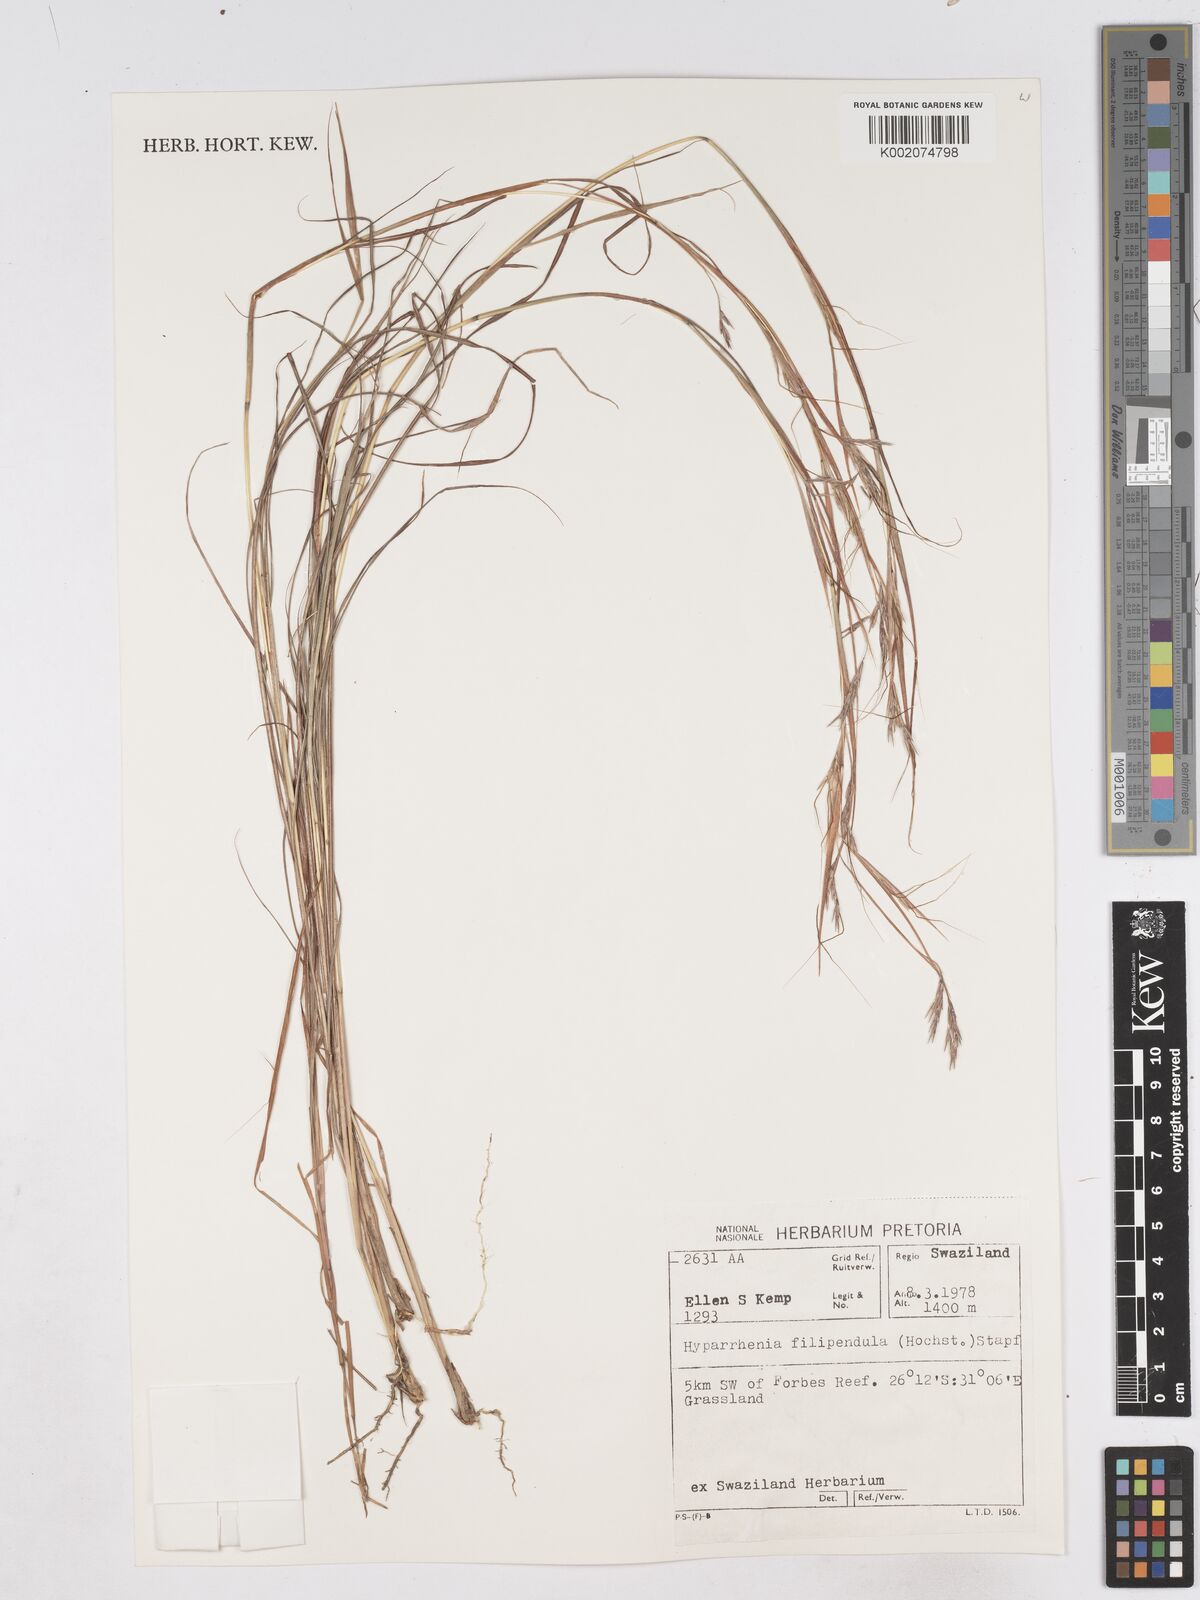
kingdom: Plantae
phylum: Tracheophyta
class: Liliopsida
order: Poales
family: Poaceae
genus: Hyparrhenia
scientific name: Hyparrhenia filipendula
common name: Tambookie grass
